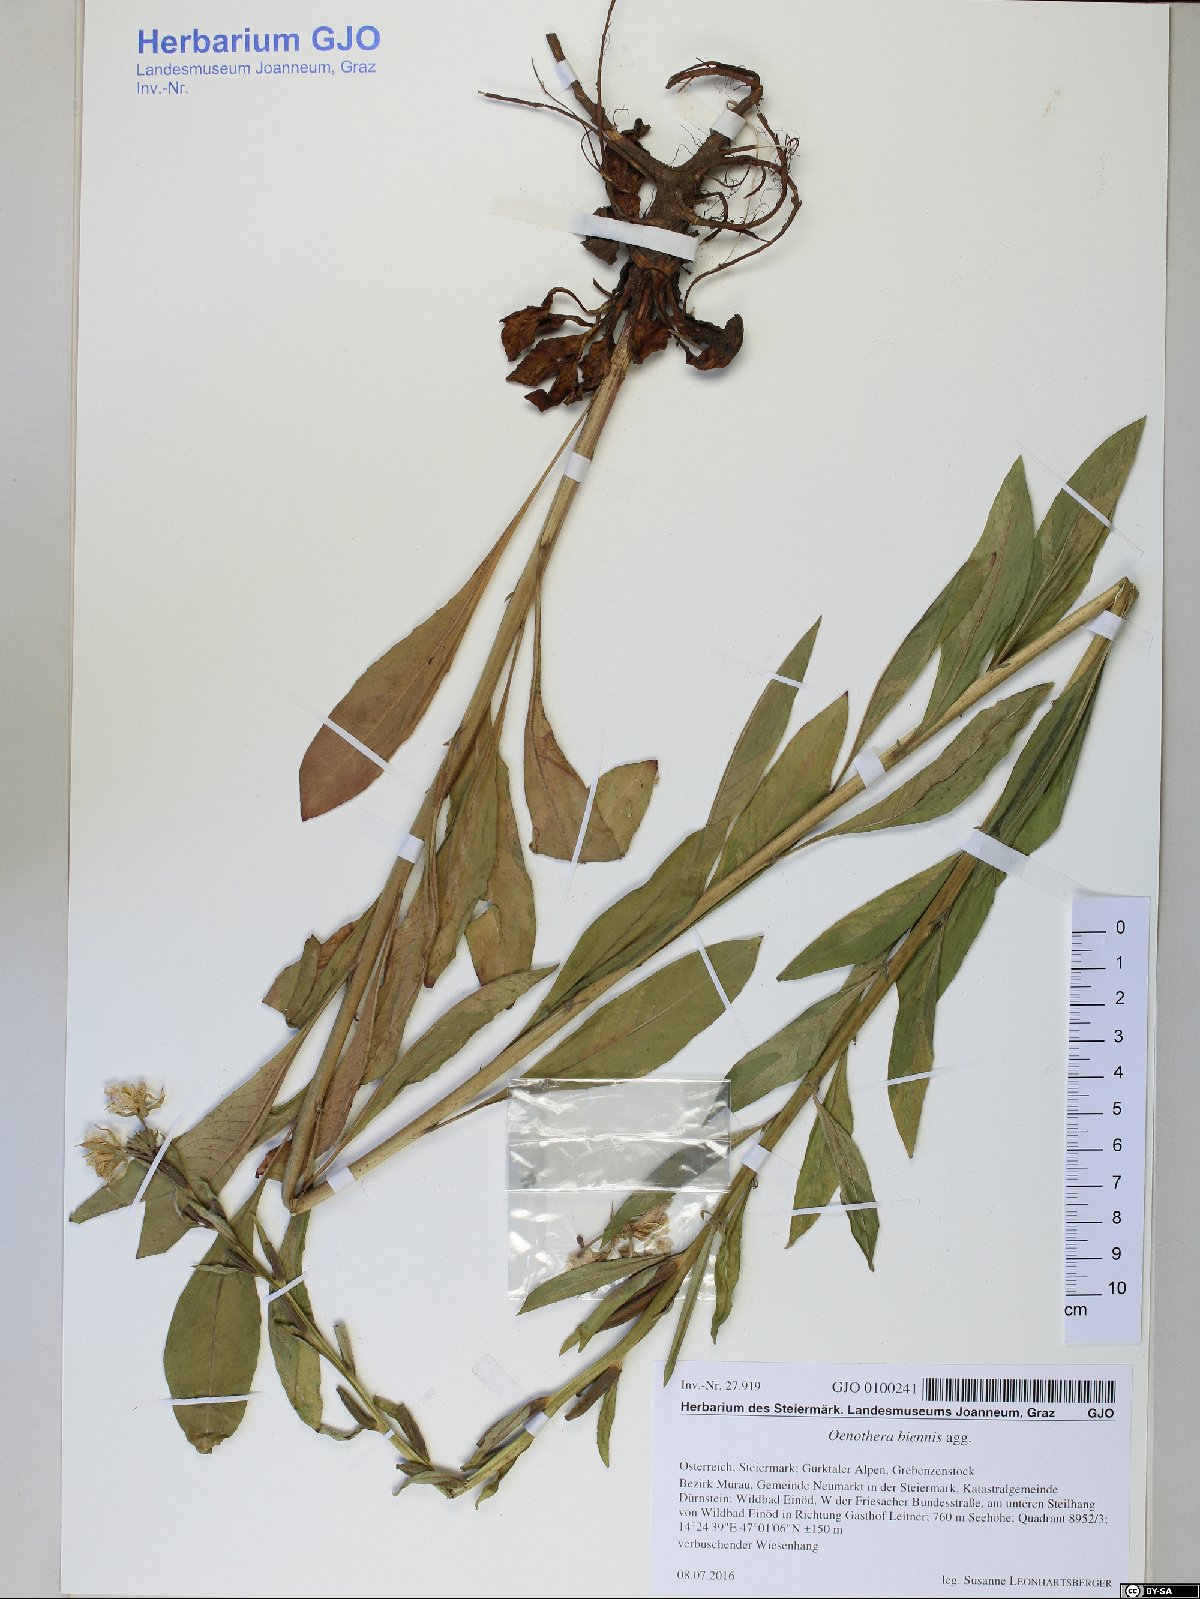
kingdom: Plantae
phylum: Tracheophyta
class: Magnoliopsida
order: Myrtales
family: Onagraceae
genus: Oenothera
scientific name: Oenothera biennis
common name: Common evening-primrose
